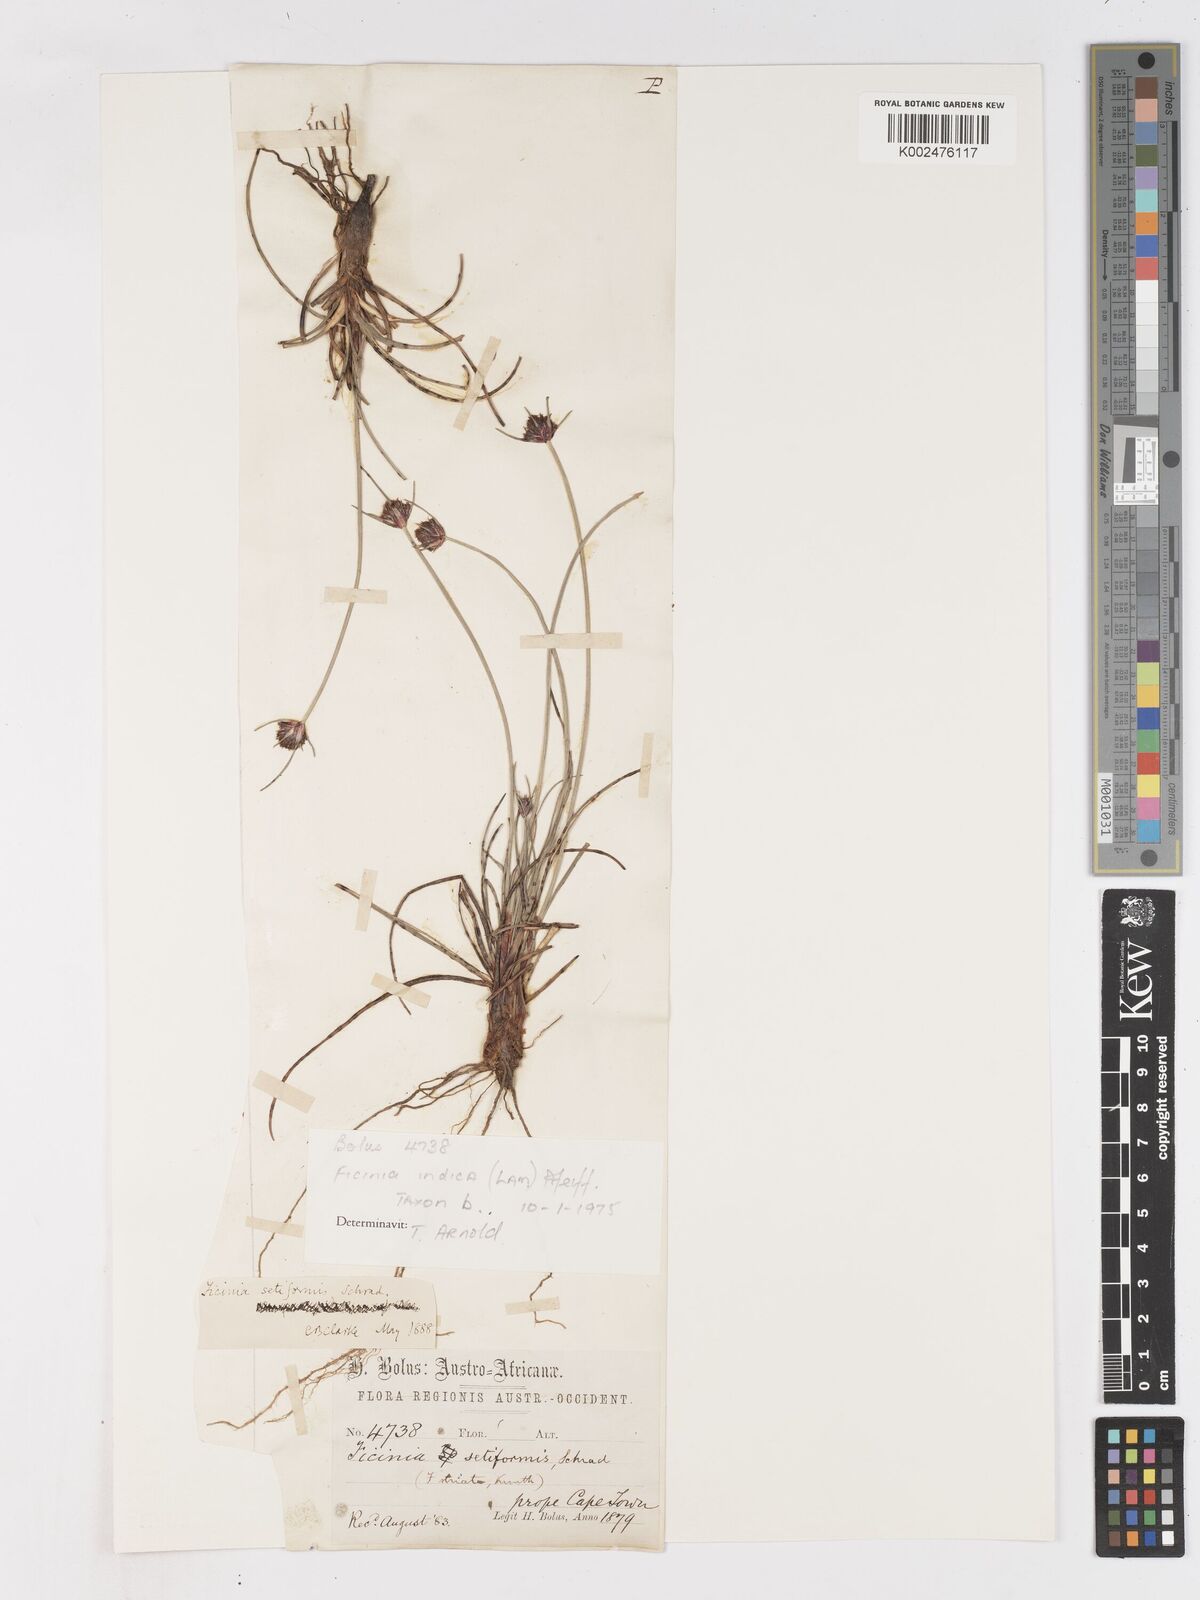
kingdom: Plantae
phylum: Tracheophyta
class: Liliopsida
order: Poales
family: Cyperaceae
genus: Ficinia
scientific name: Ficinia indica
